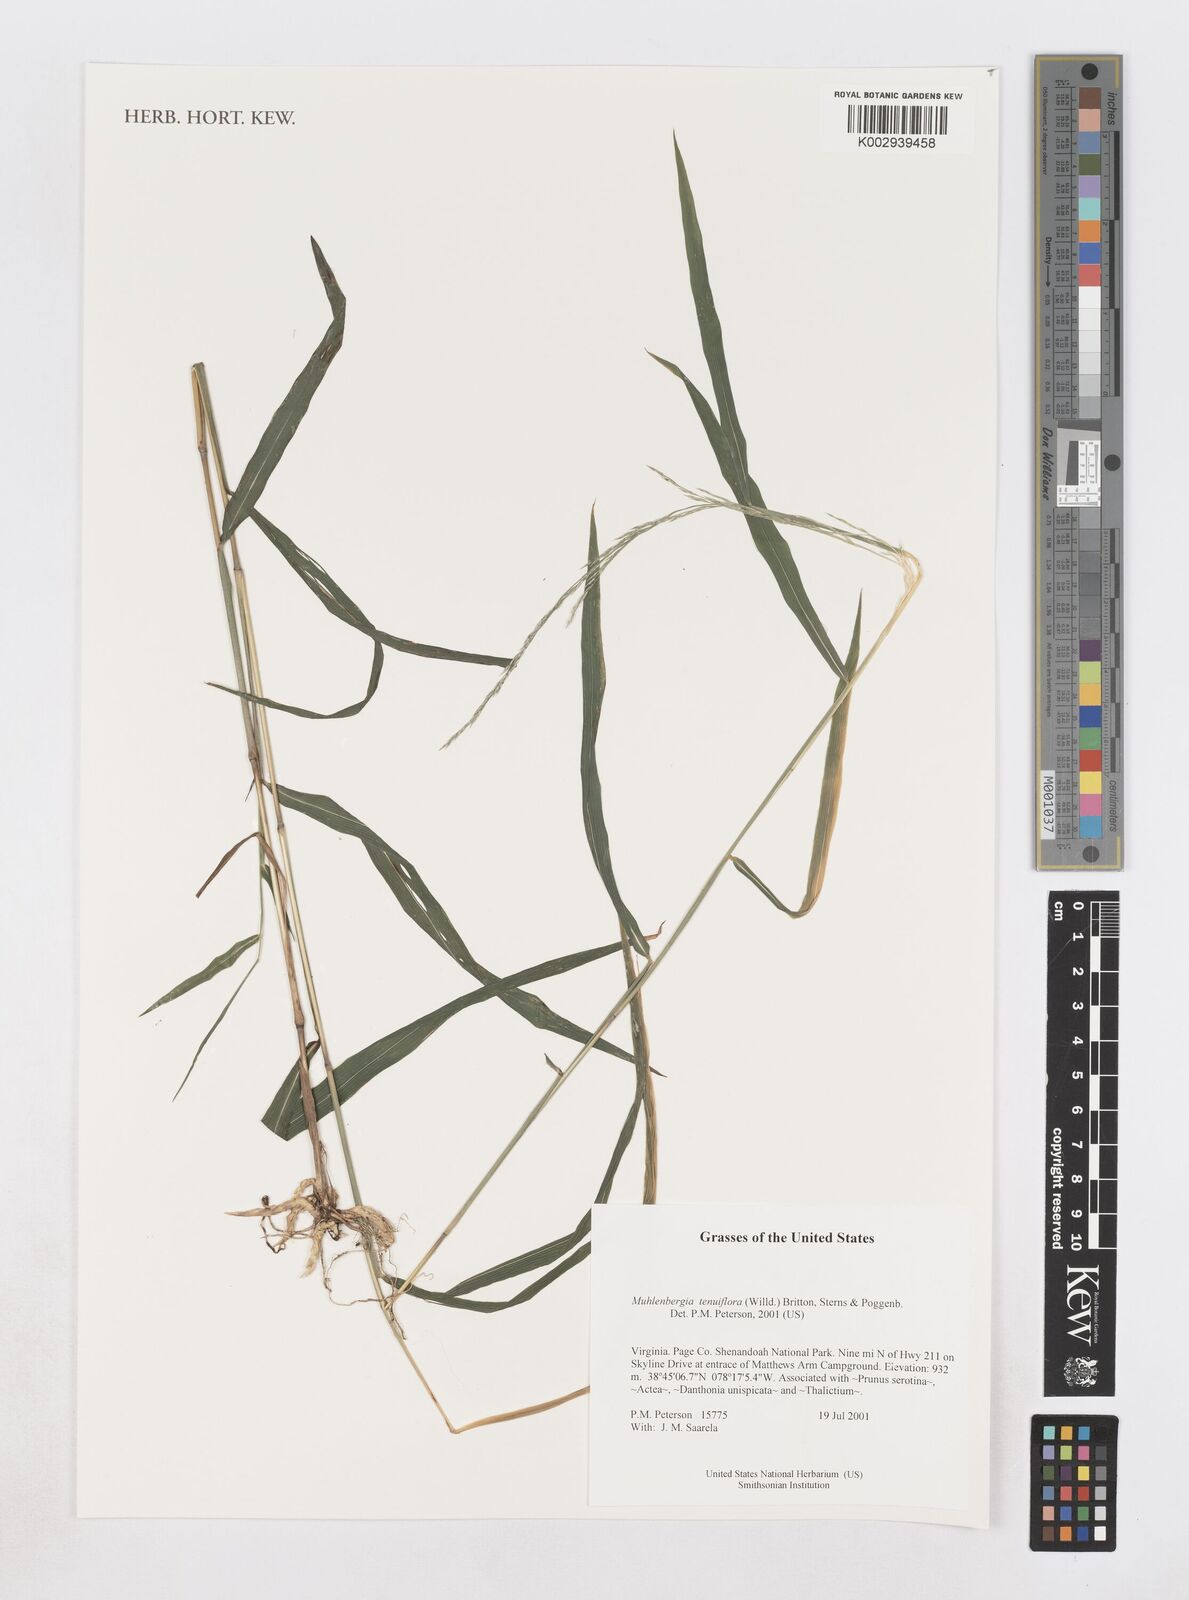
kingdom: Plantae
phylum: Tracheophyta
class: Liliopsida
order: Poales
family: Poaceae
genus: Muhlenbergia
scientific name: Muhlenbergia tenuiflora
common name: Slender muhly
